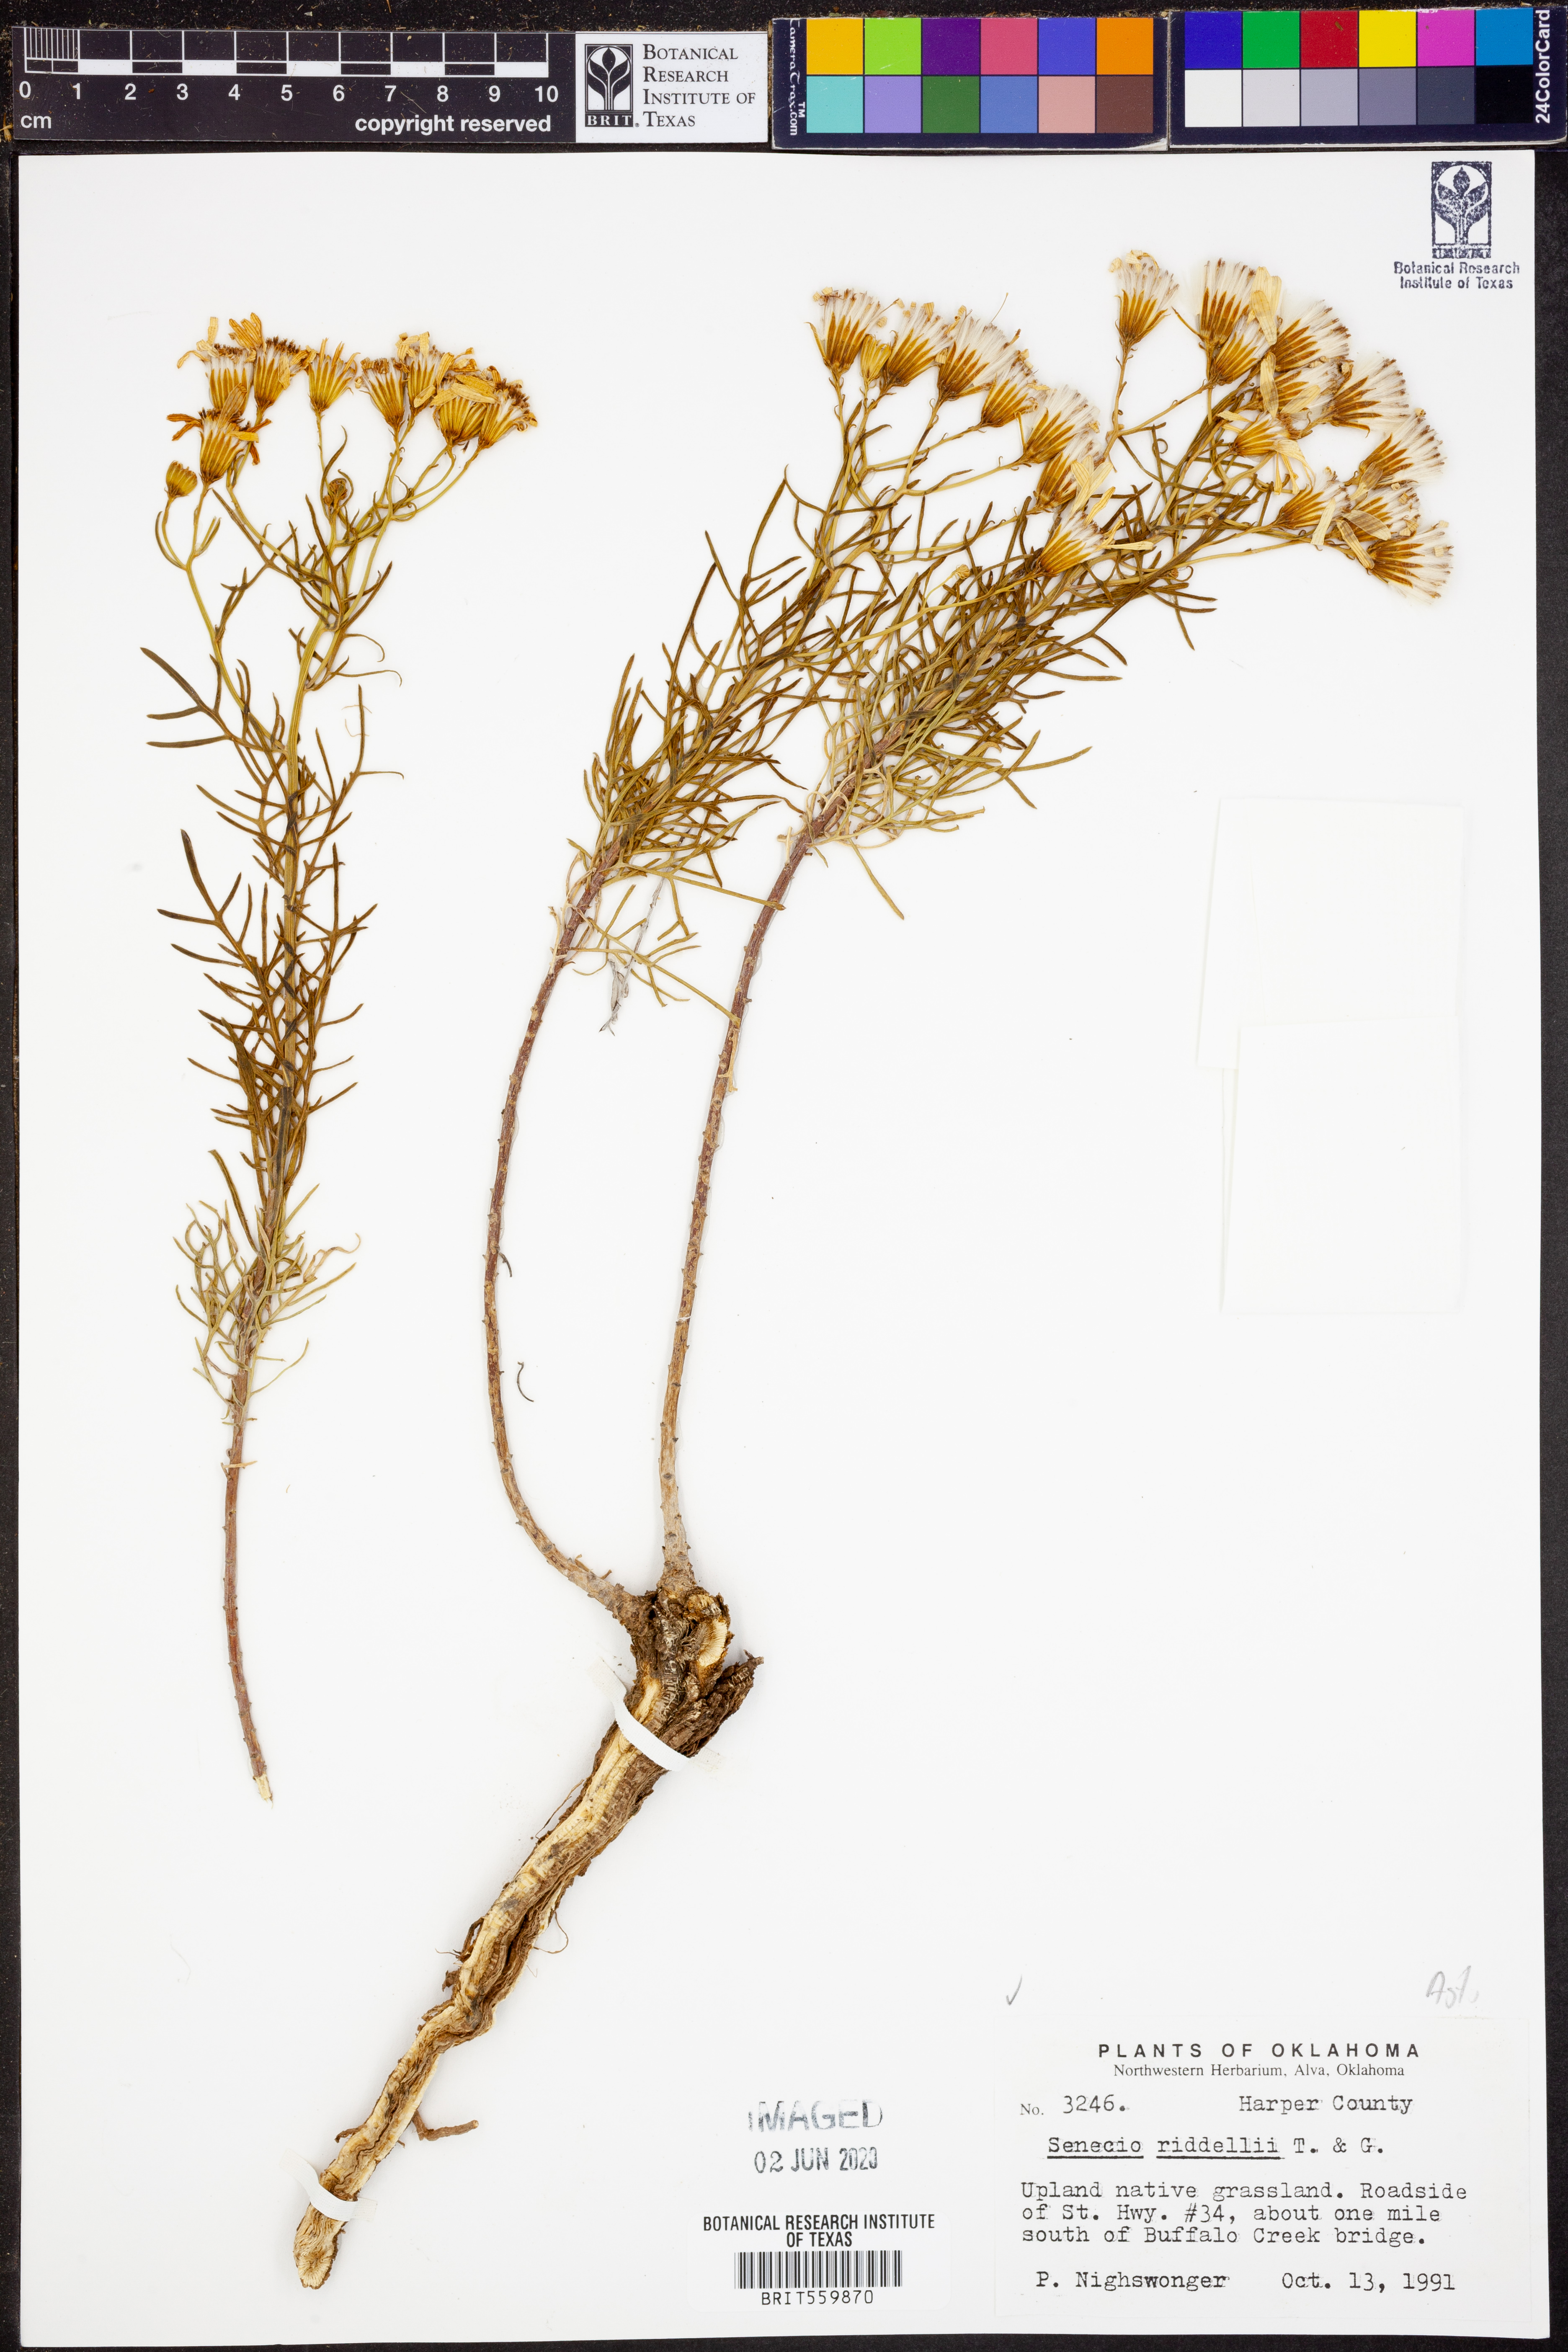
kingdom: Plantae
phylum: Tracheophyta
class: Magnoliopsida
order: Asterales
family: Asteraceae
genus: Senecio
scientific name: Senecio riddellii
